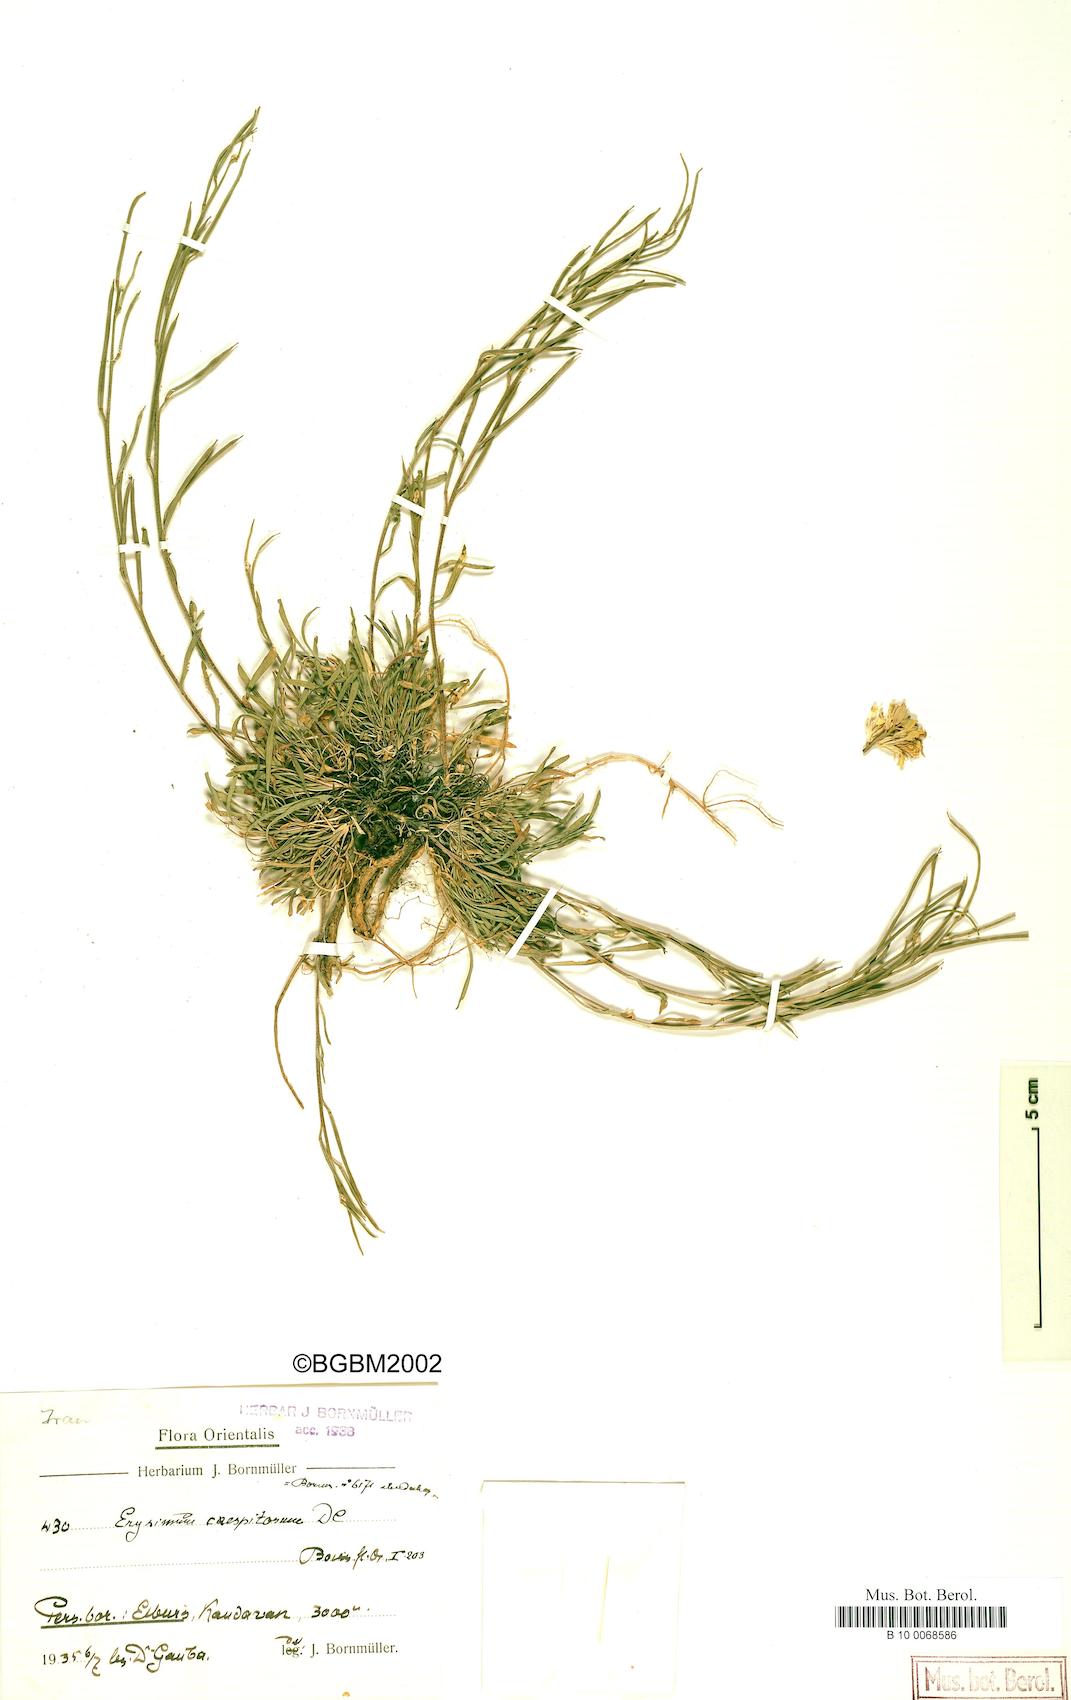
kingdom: Plantae
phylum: Tracheophyta
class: Magnoliopsida
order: Brassicales
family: Brassicaceae
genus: Erysimum
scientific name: Erysimum caespitosum
